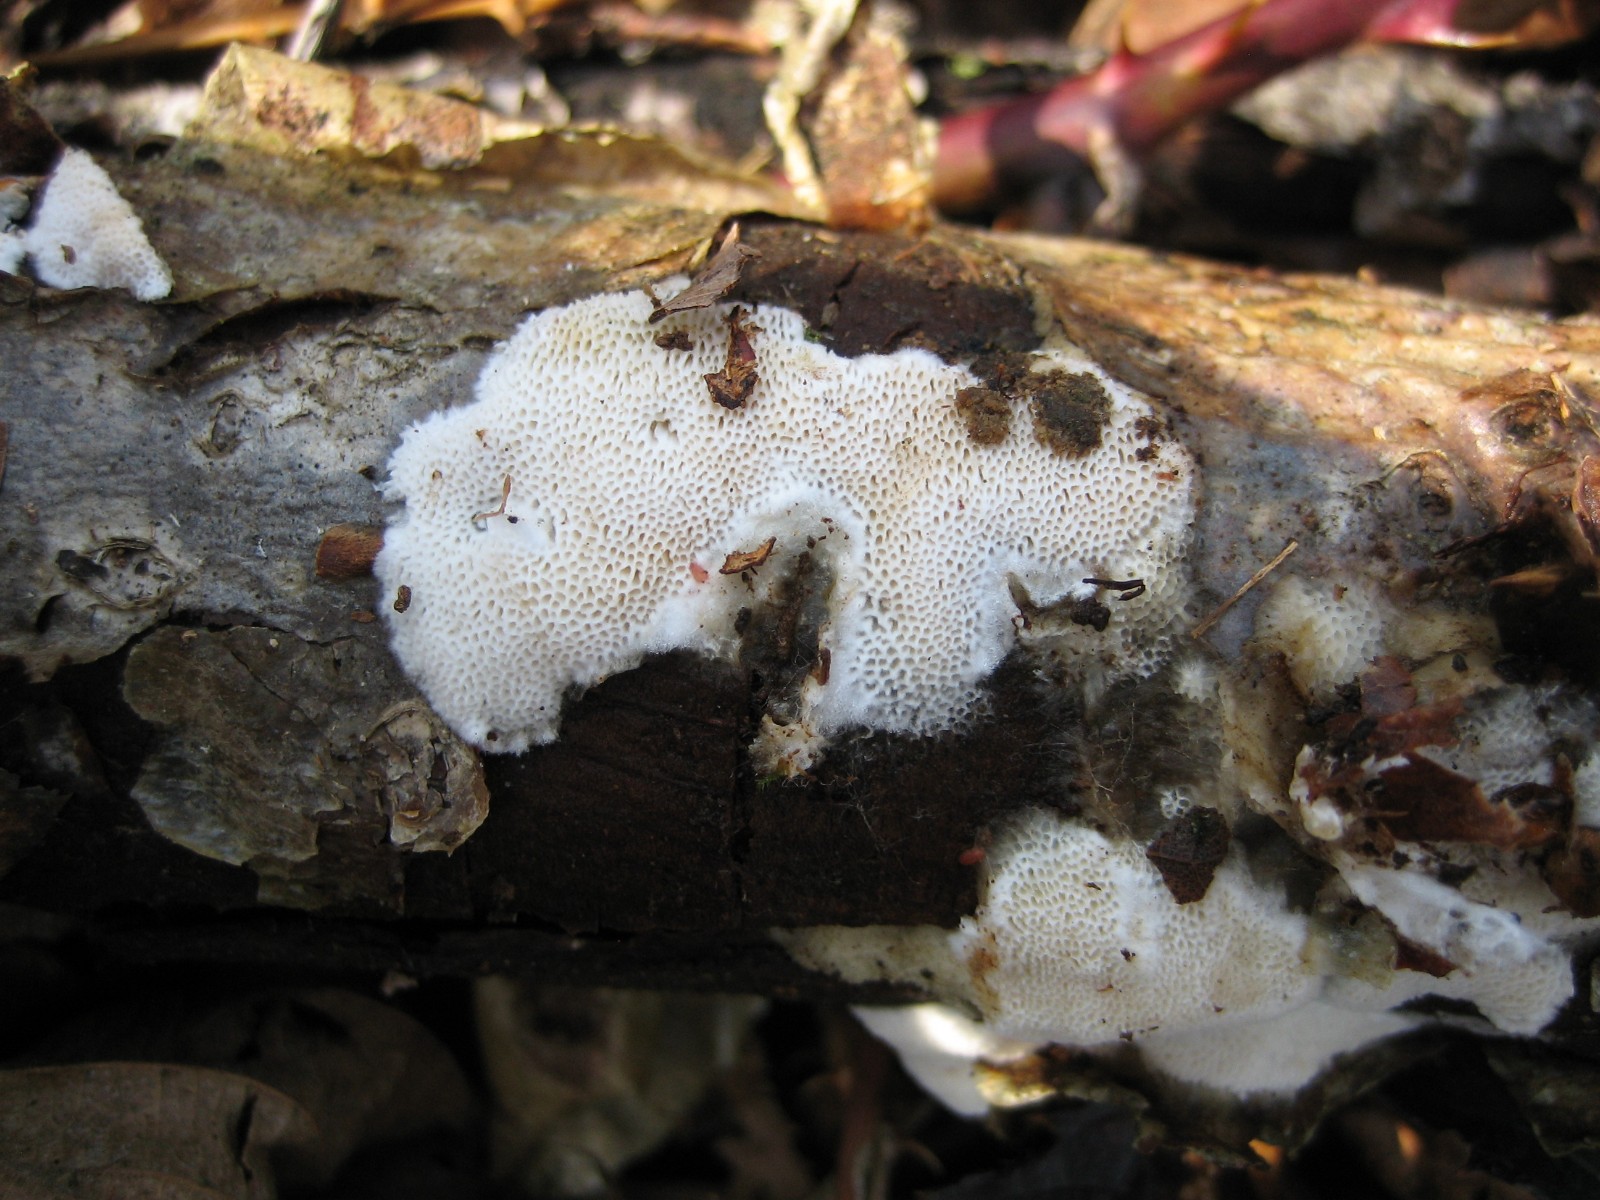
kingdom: Fungi
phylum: Basidiomycota
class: Agaricomycetes
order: Polyporales
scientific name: Polyporales
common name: poresvampordenen
